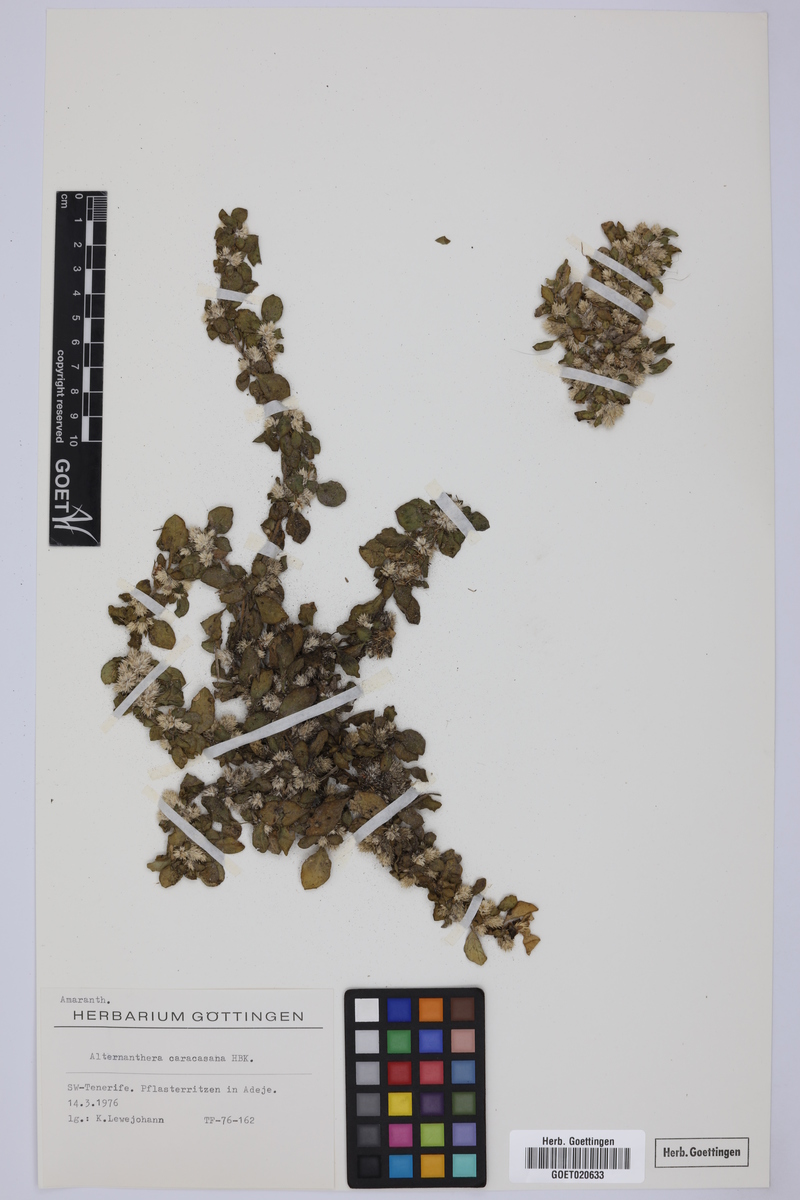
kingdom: Plantae
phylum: Tracheophyta
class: Magnoliopsida
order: Caryophyllales
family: Amaranthaceae
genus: Alternanthera
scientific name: Alternanthera caracasana
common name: Washerwoman
